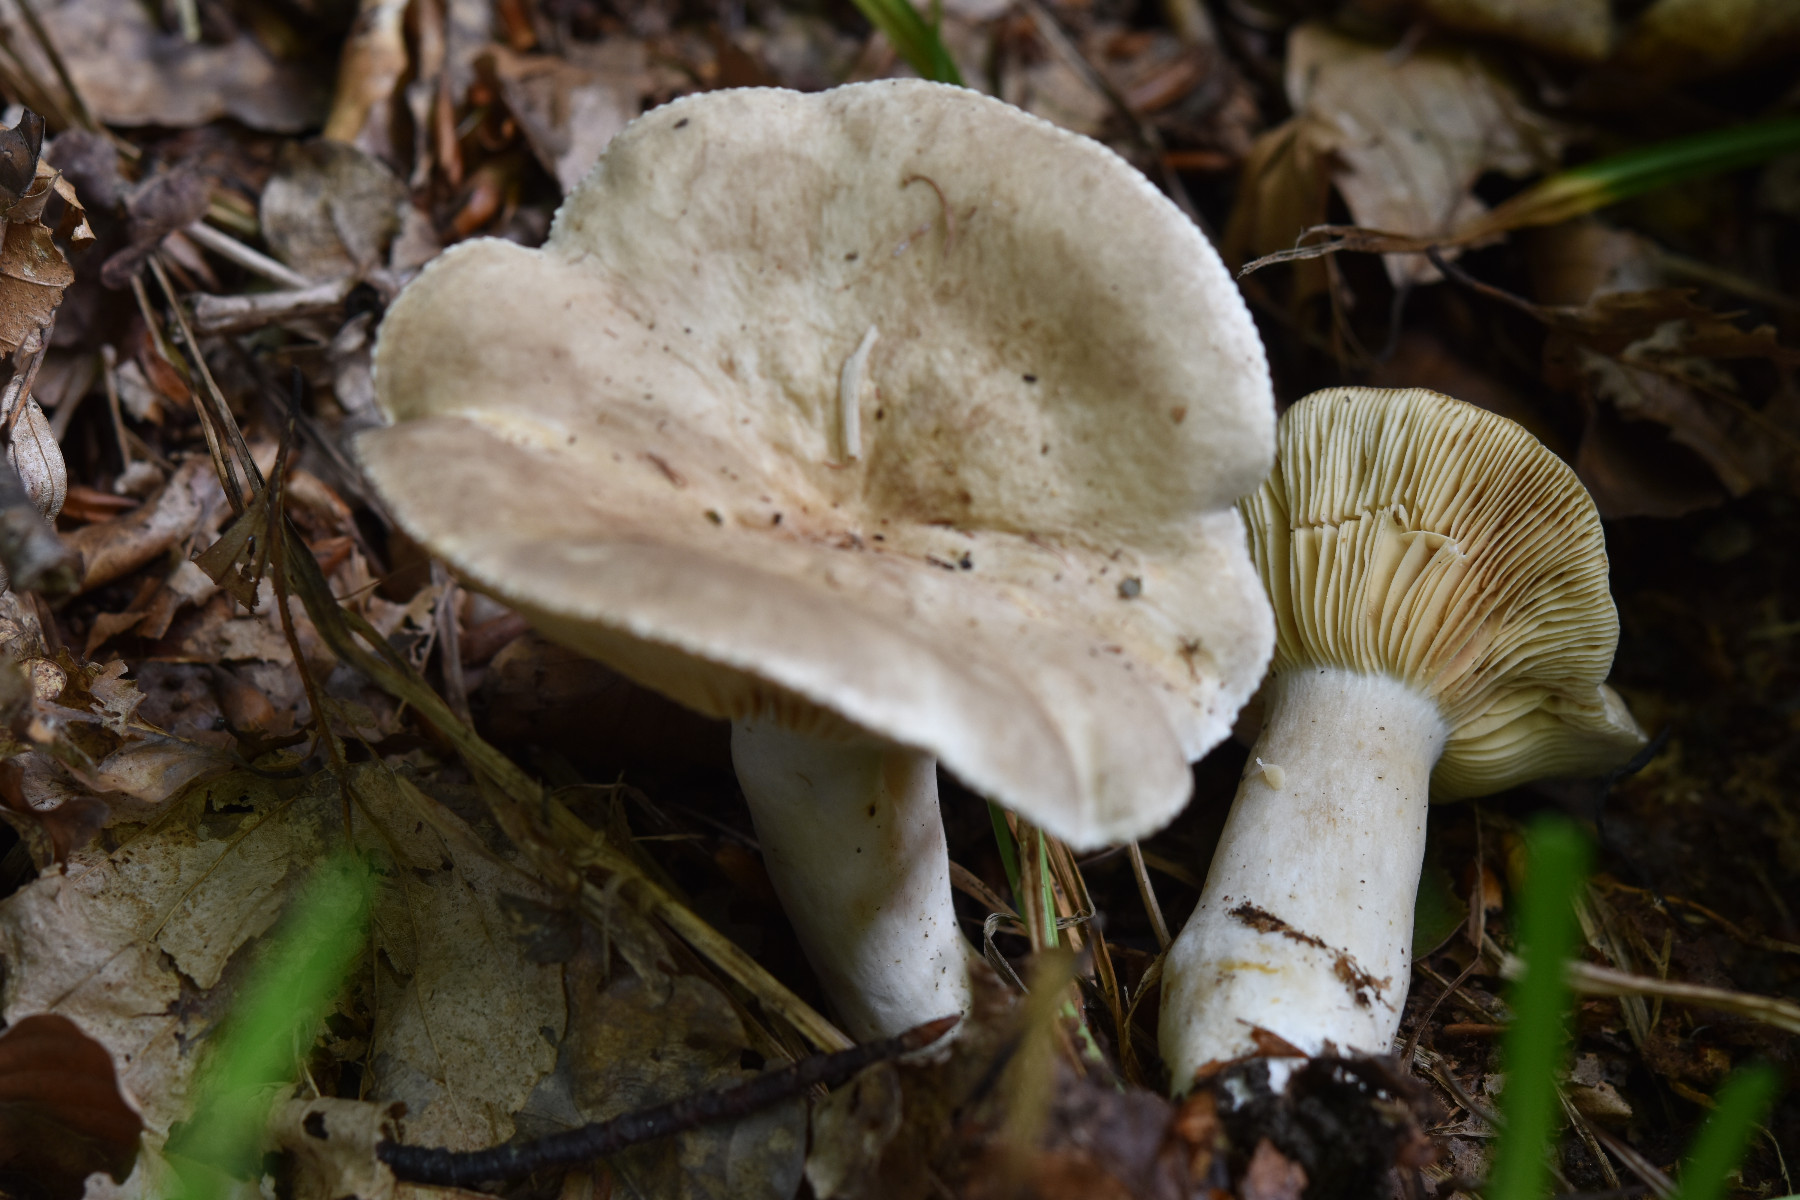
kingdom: Fungi
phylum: Basidiomycota
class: Agaricomycetes
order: Russulales
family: Russulaceae
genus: Lactarius
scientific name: Lactarius azonites
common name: røggrå mælkehat
